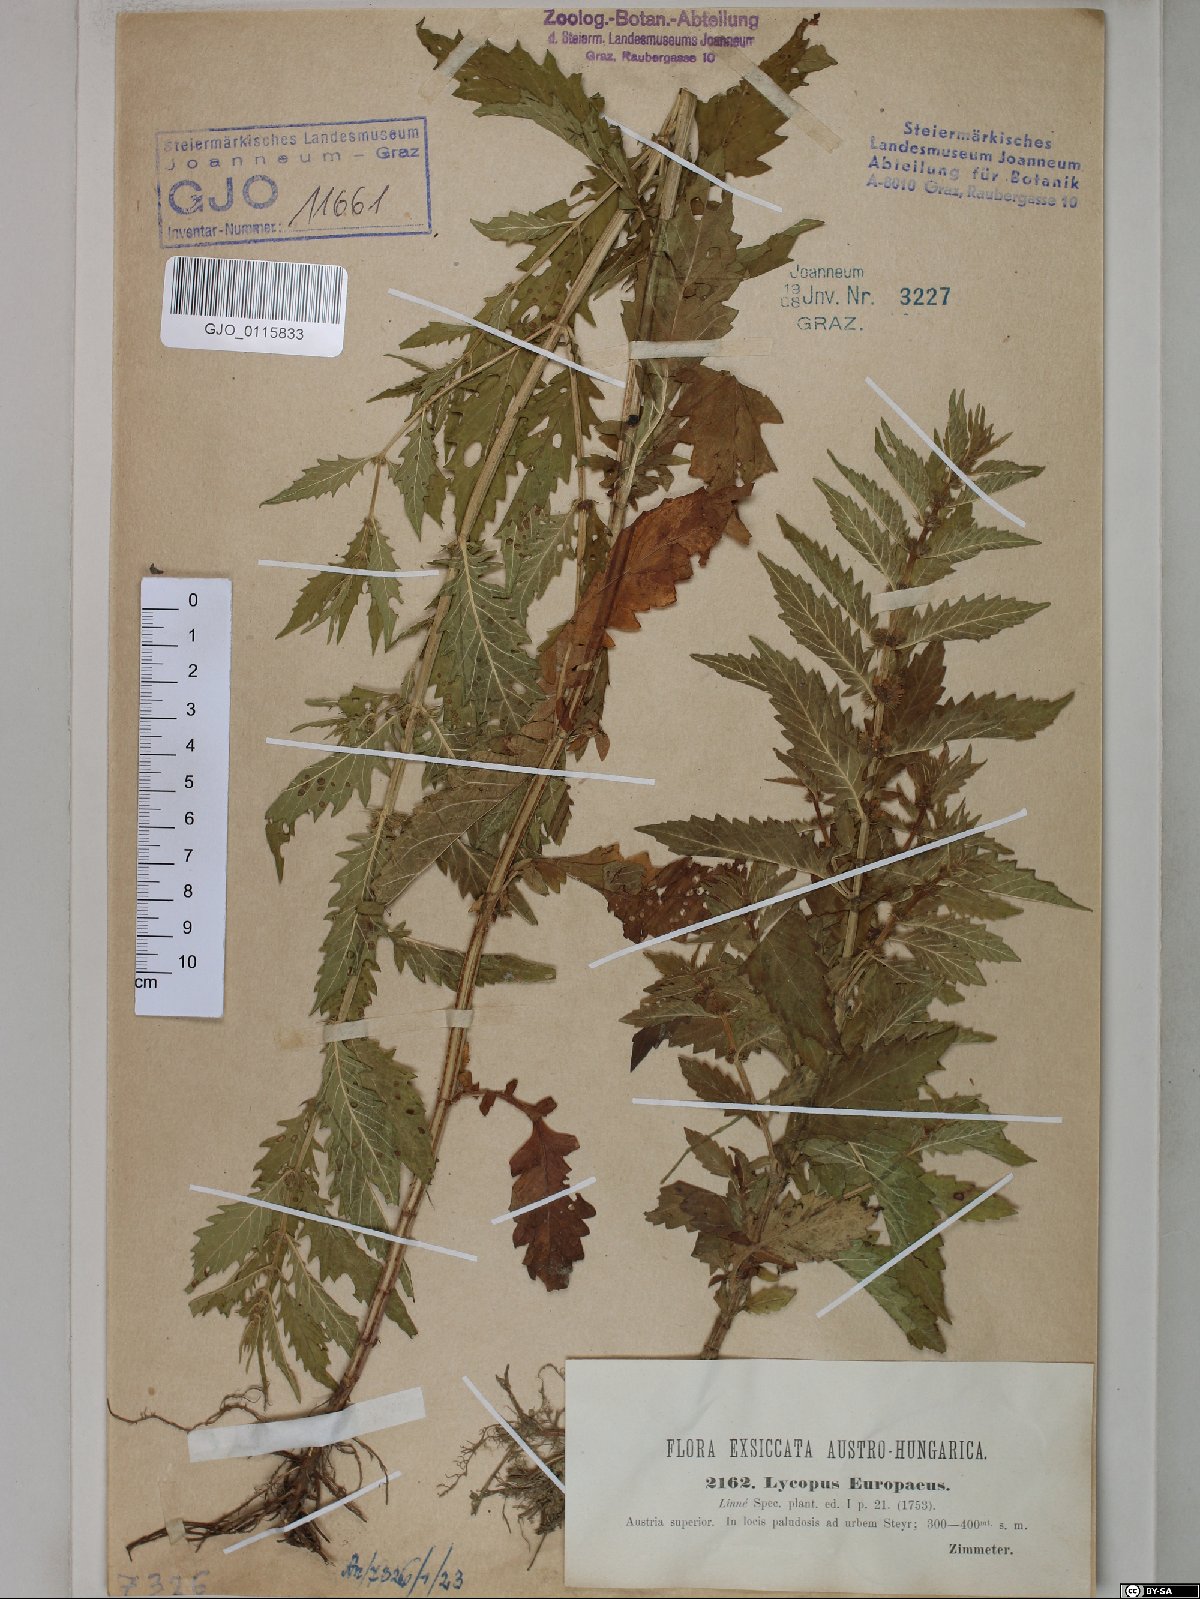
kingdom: Plantae
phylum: Tracheophyta
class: Magnoliopsida
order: Lamiales
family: Lamiaceae
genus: Lycopus
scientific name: Lycopus europaeus
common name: European bugleweed
